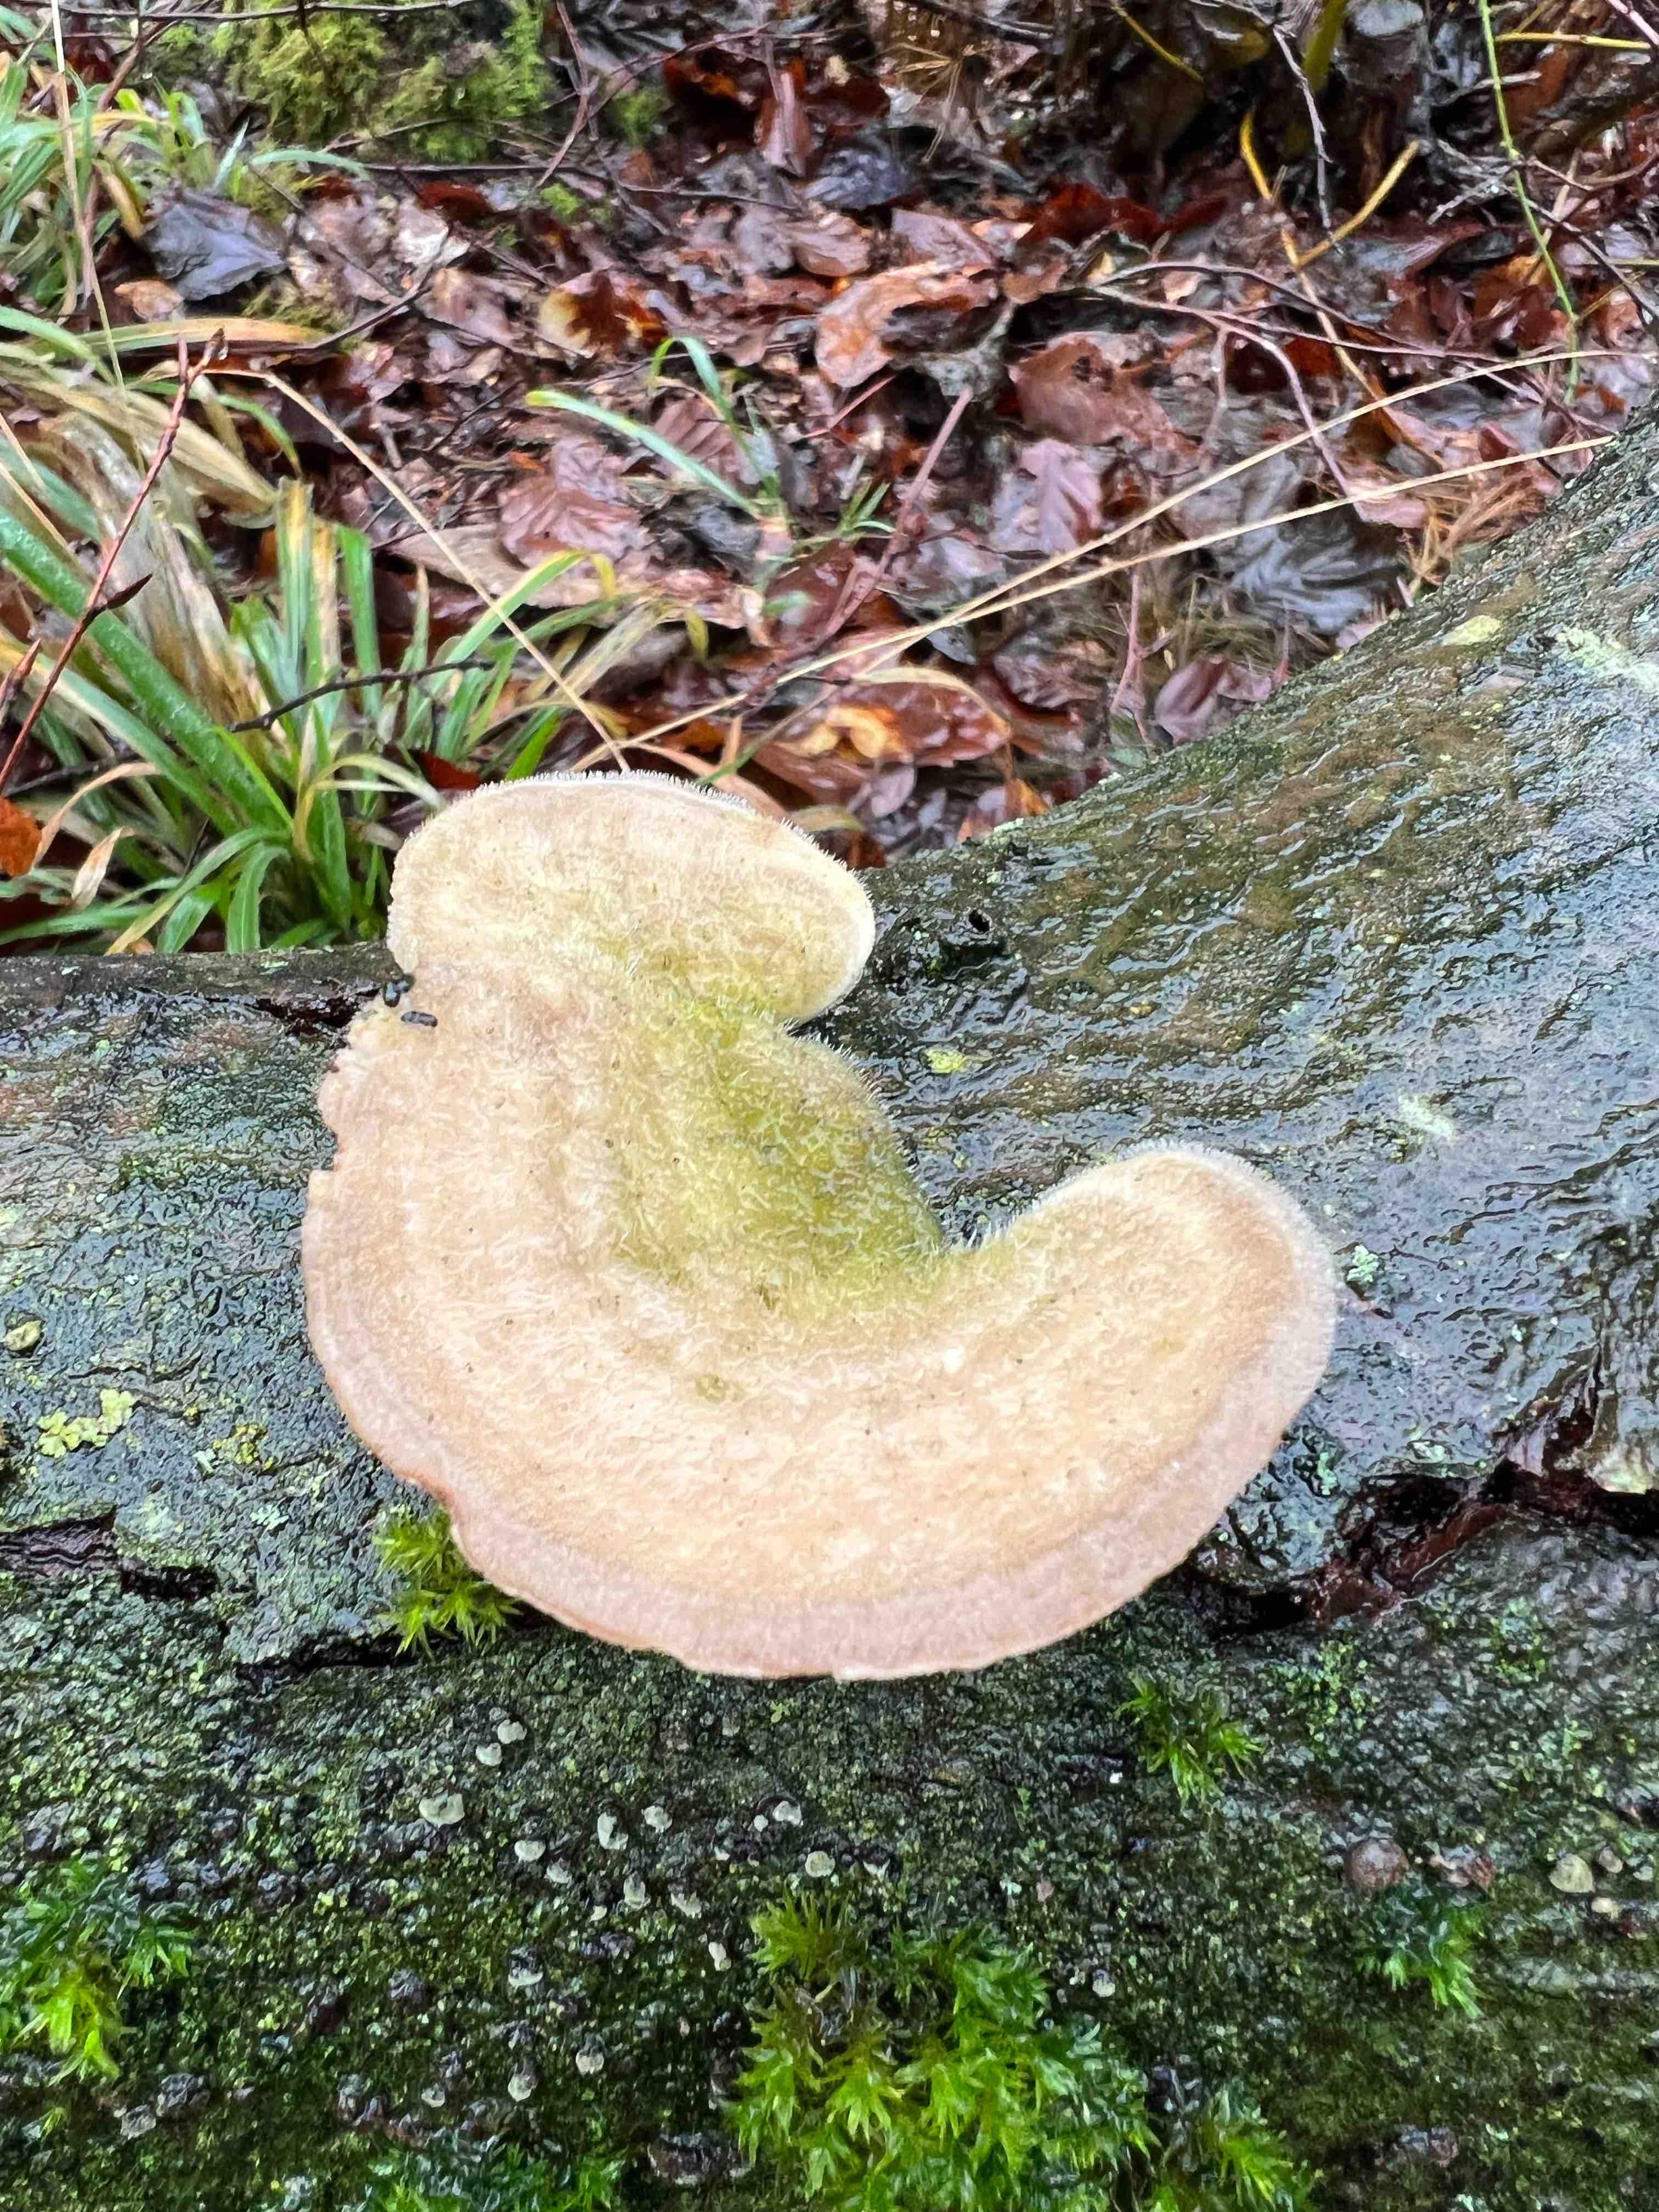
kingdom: Fungi
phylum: Basidiomycota
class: Agaricomycetes
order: Polyporales
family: Polyporaceae
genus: Trametes
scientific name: Trametes hirsuta
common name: håret læderporesvamp
